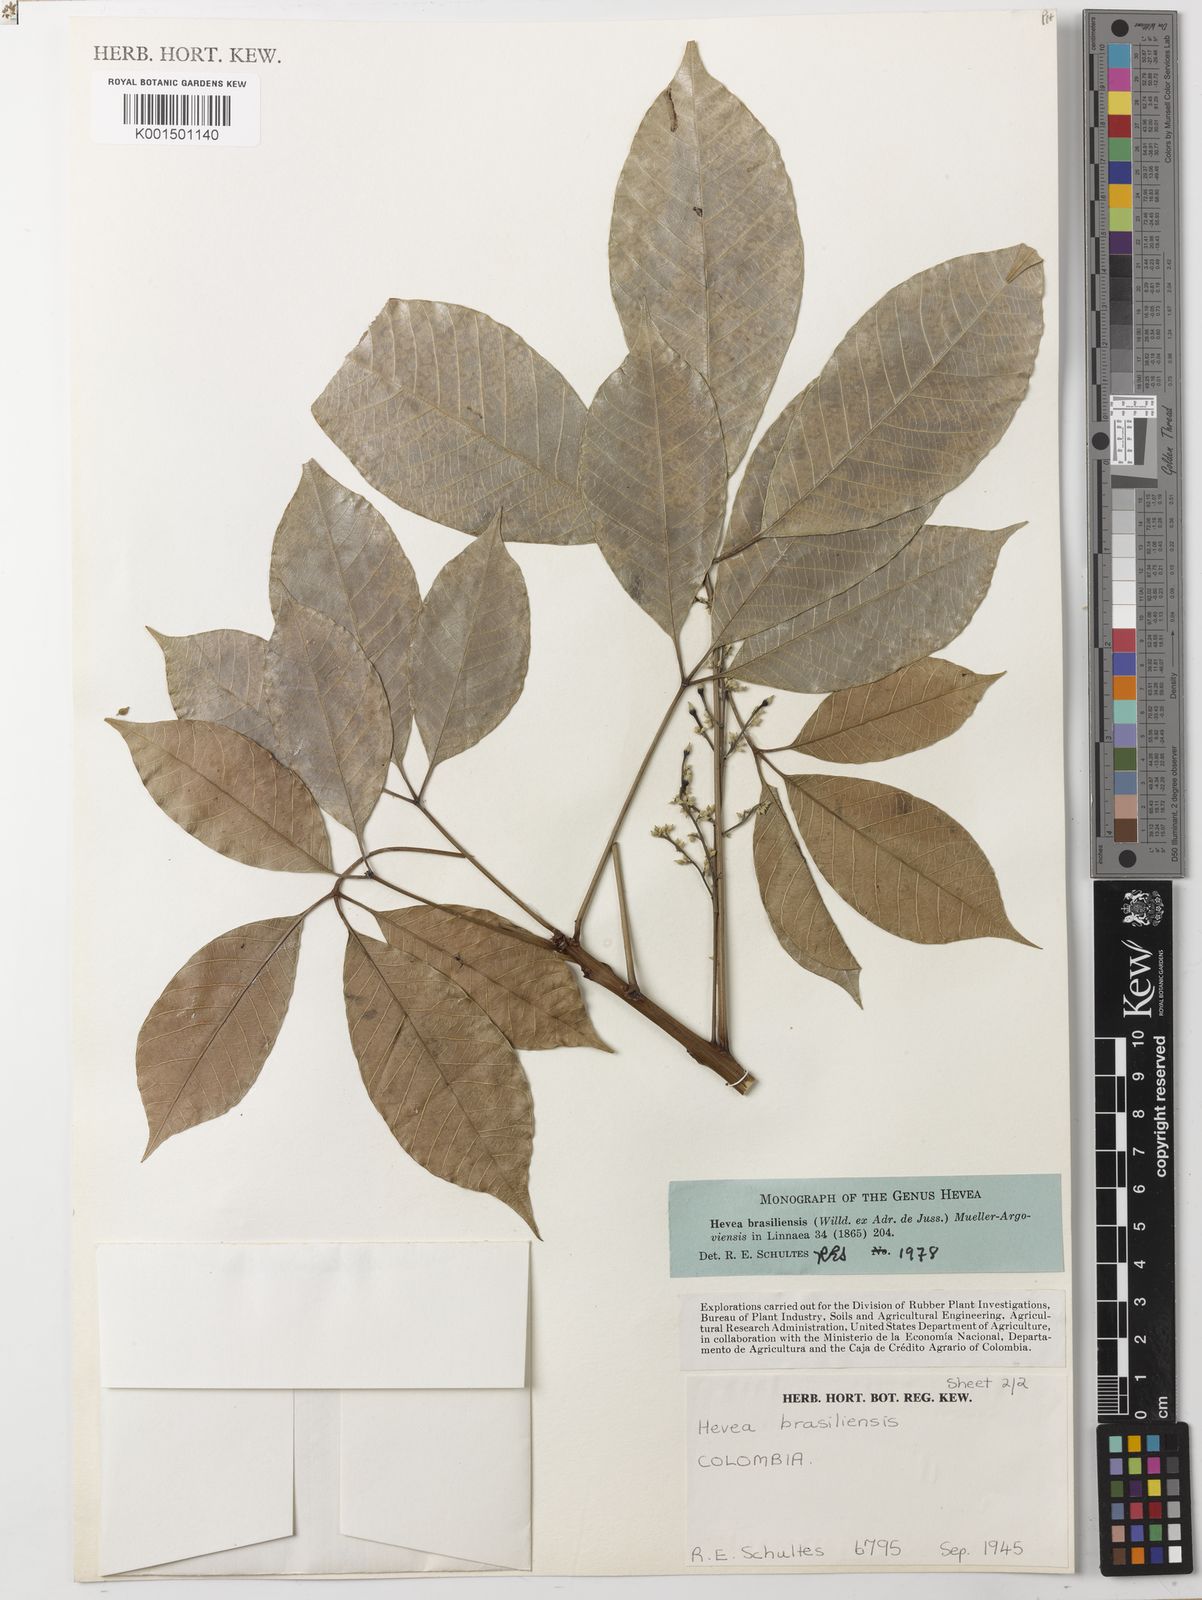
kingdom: Plantae
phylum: Tracheophyta
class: Magnoliopsida
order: Malpighiales
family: Euphorbiaceae
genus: Hevea
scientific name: Hevea brasiliensis
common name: Natural rubber
